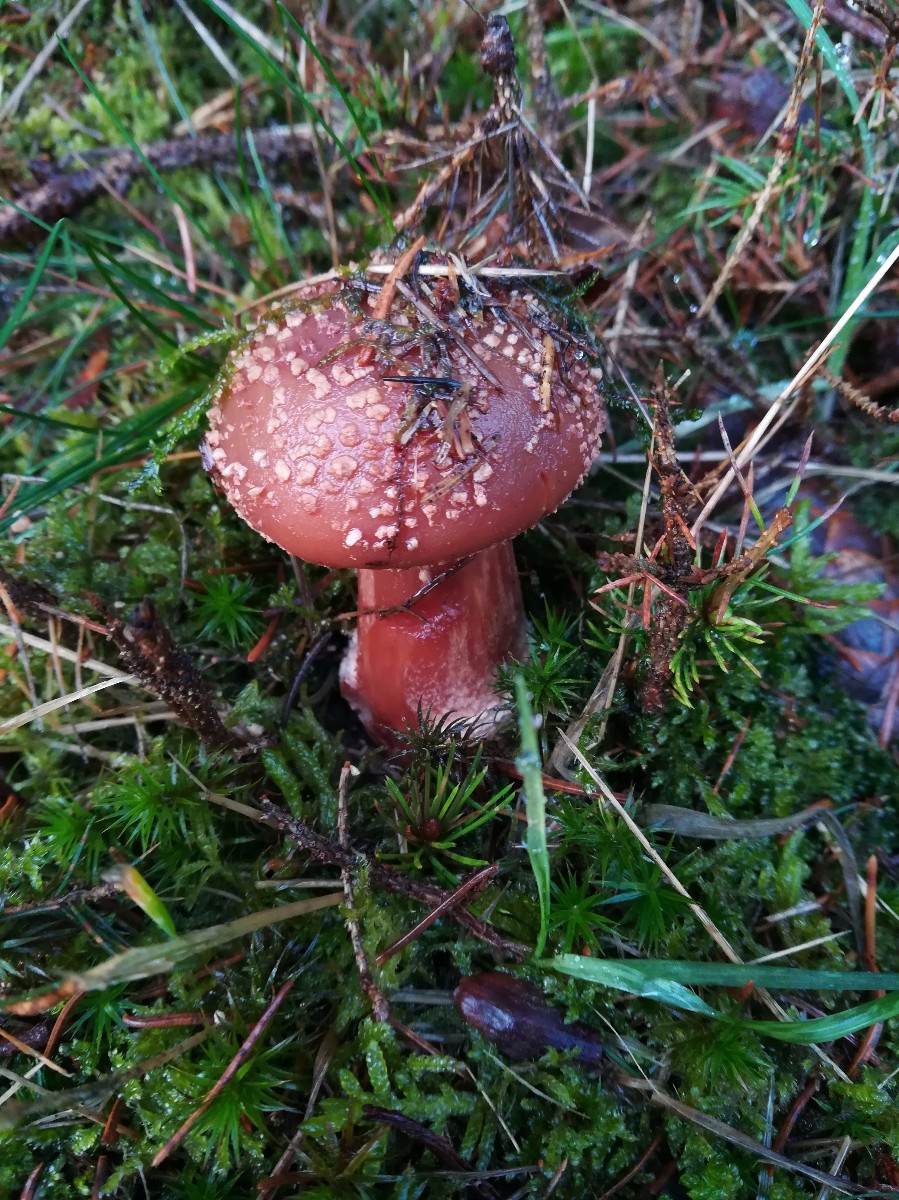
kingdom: Fungi
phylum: Basidiomycota
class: Agaricomycetes
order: Agaricales
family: Amanitaceae
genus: Amanita
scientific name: Amanita rubescens
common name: rødmende fluesvamp
